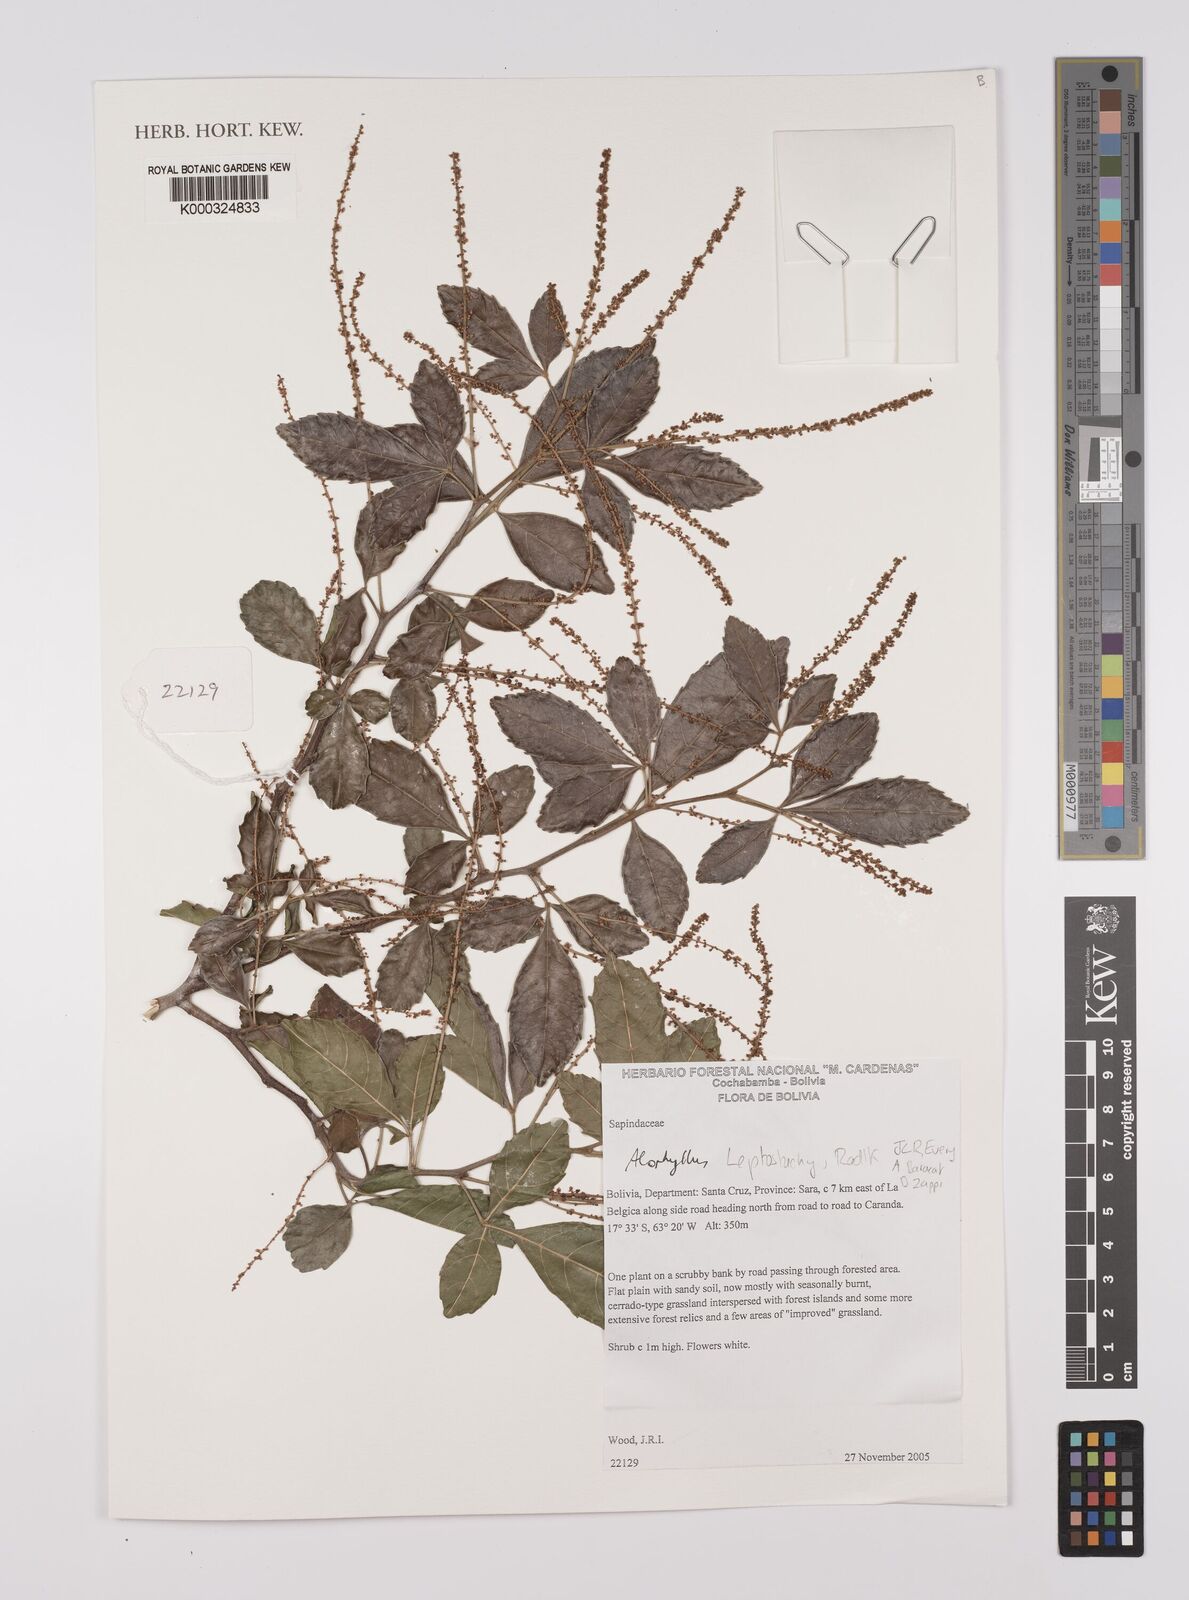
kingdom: Plantae
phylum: Tracheophyta
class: Magnoliopsida
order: Sapindales
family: Sapindaceae
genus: Allophylus
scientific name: Allophylus leptostachys
